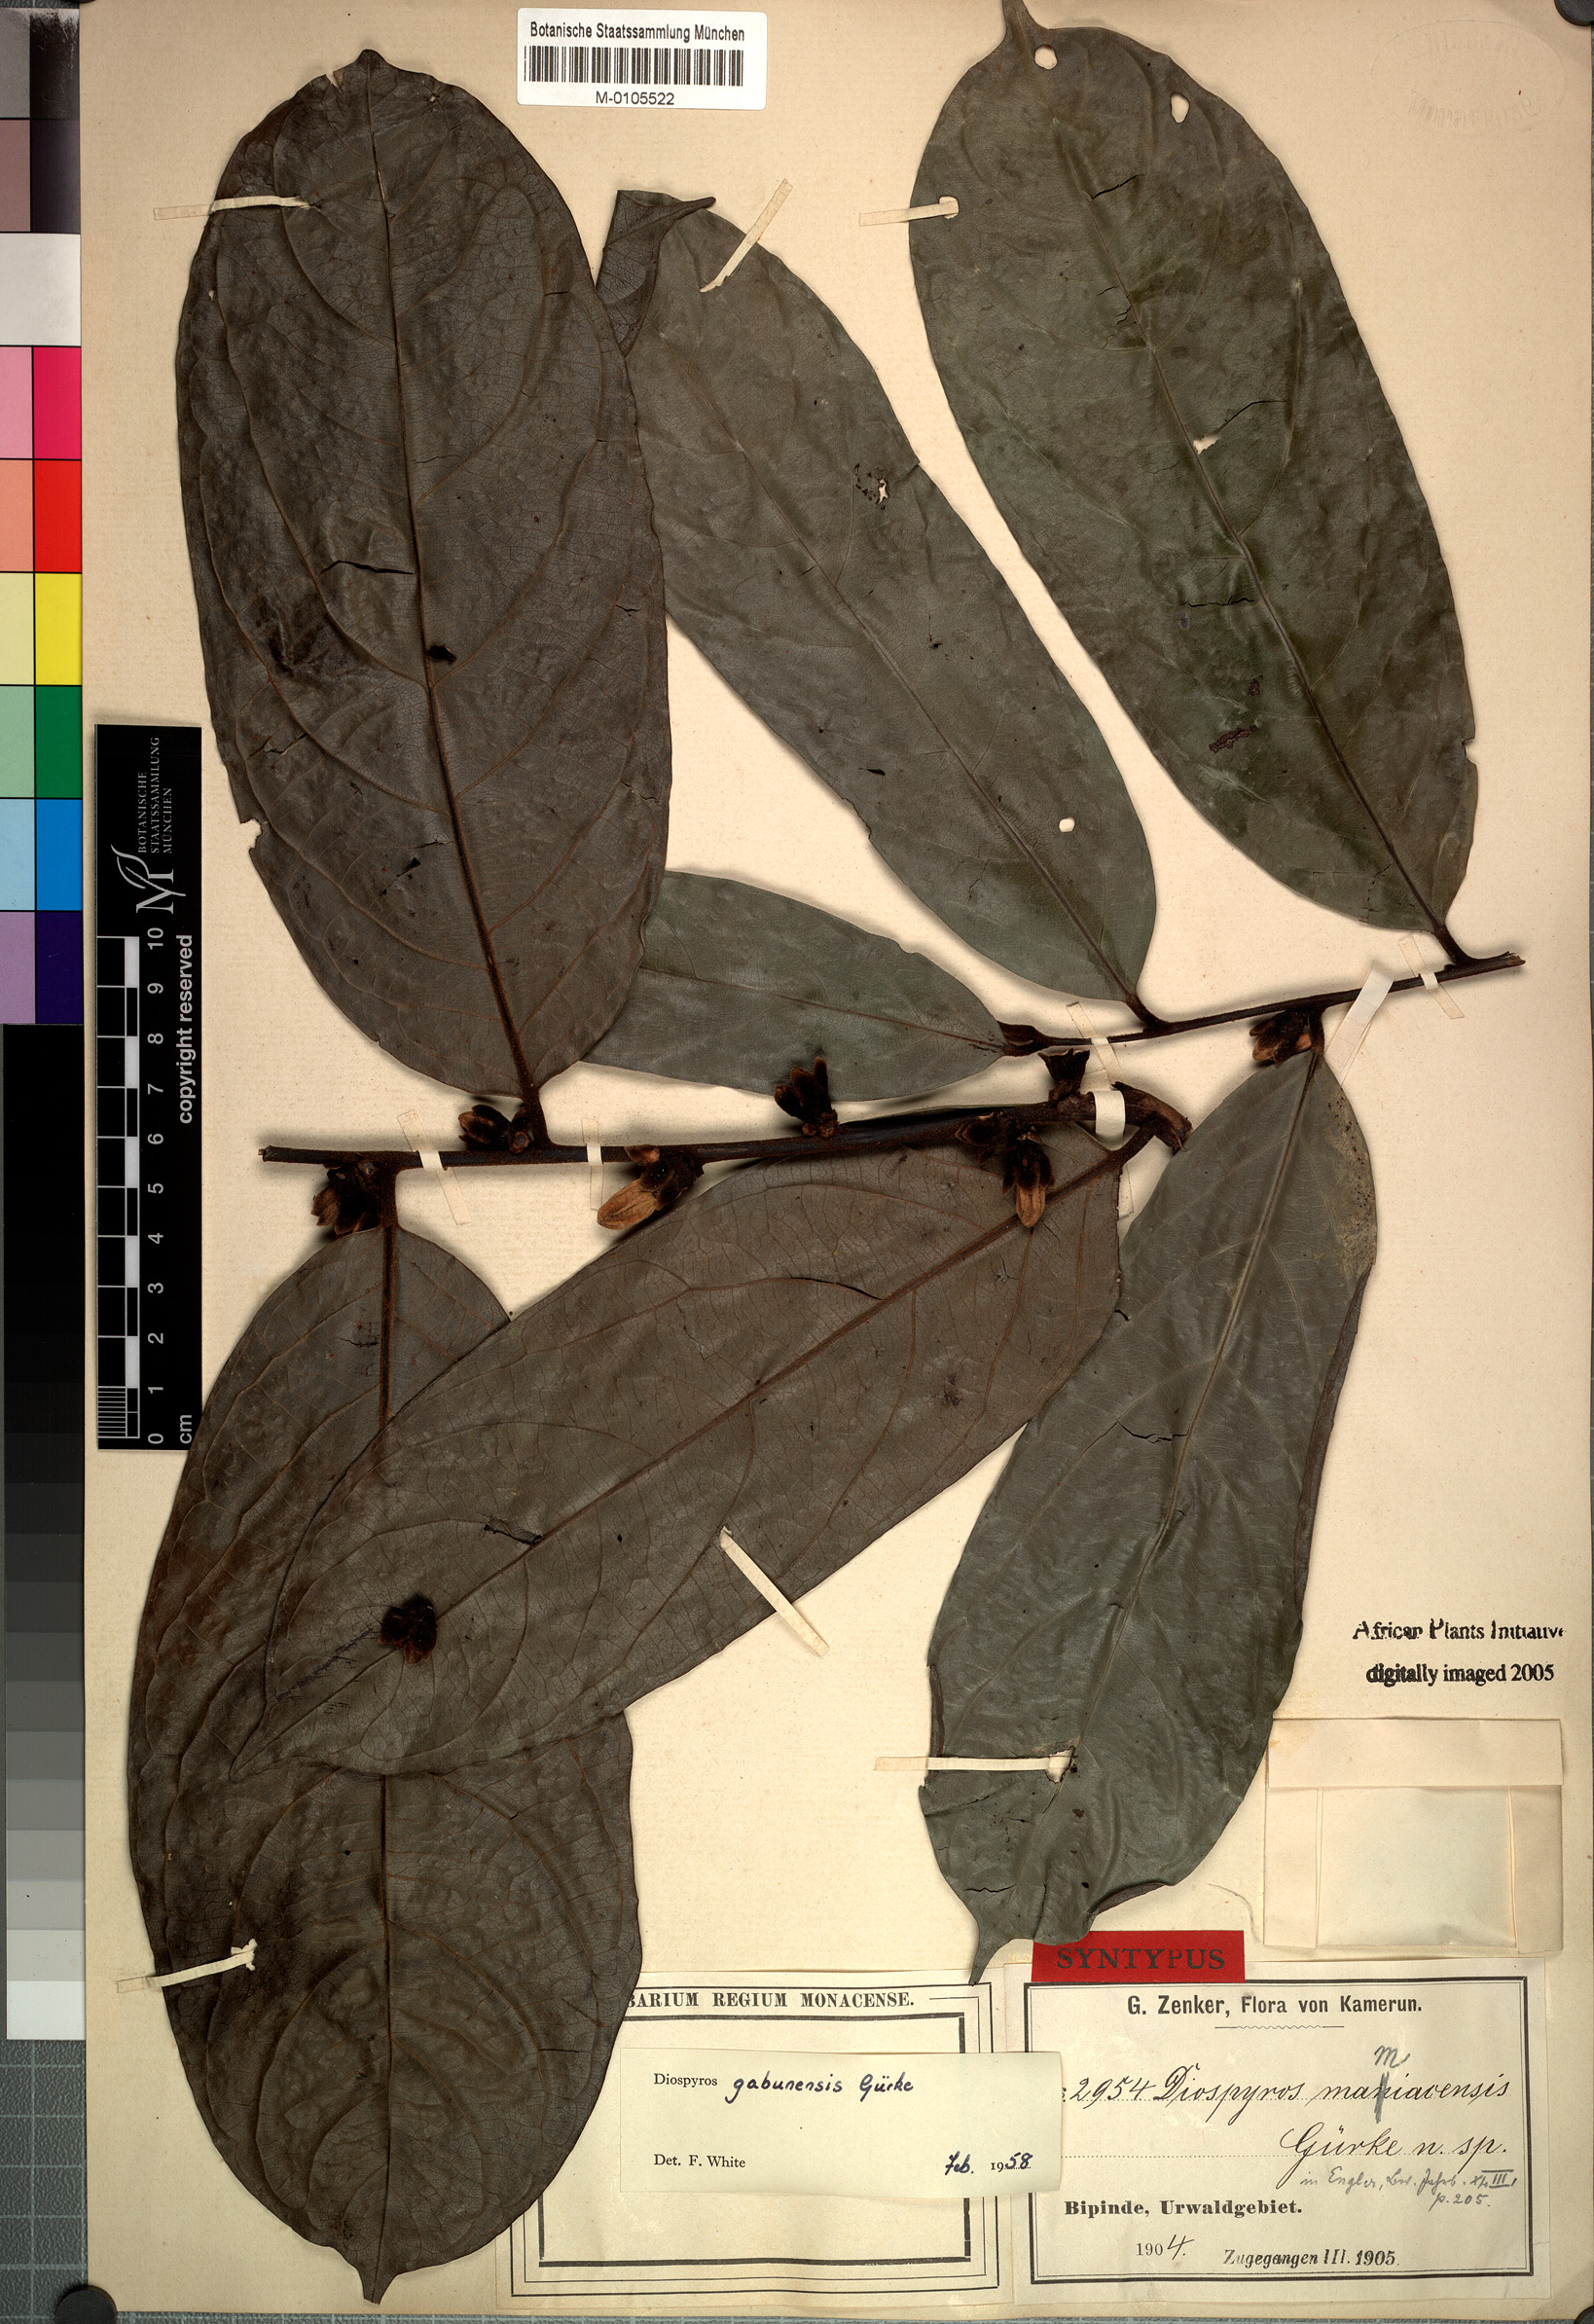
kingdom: Plantae
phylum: Tracheophyta
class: Magnoliopsida
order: Ericales
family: Ebenaceae
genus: Diospyros
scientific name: Diospyros gabunensis
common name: Flint bark tree
